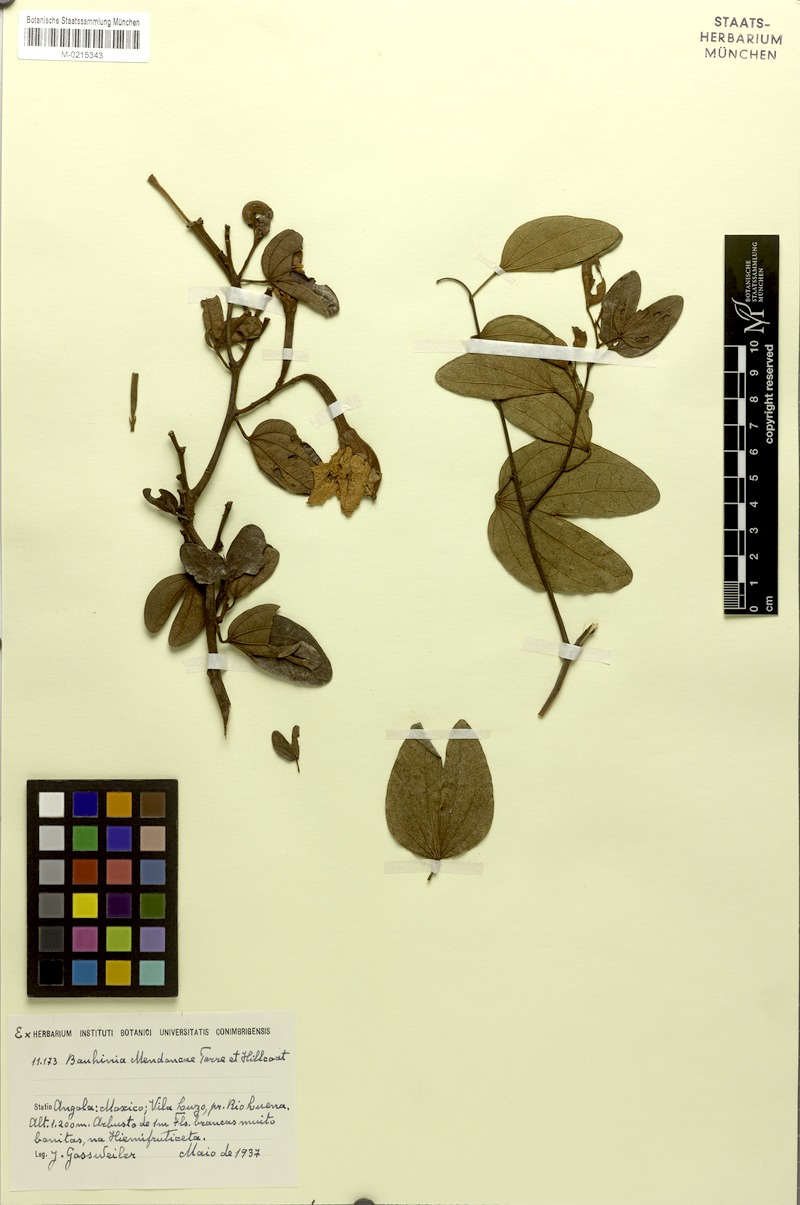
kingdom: Plantae
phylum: Tracheophyta
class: Magnoliopsida
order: Fabales
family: Fabaceae
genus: Bauhinia
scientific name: Bauhinia mendoncae
